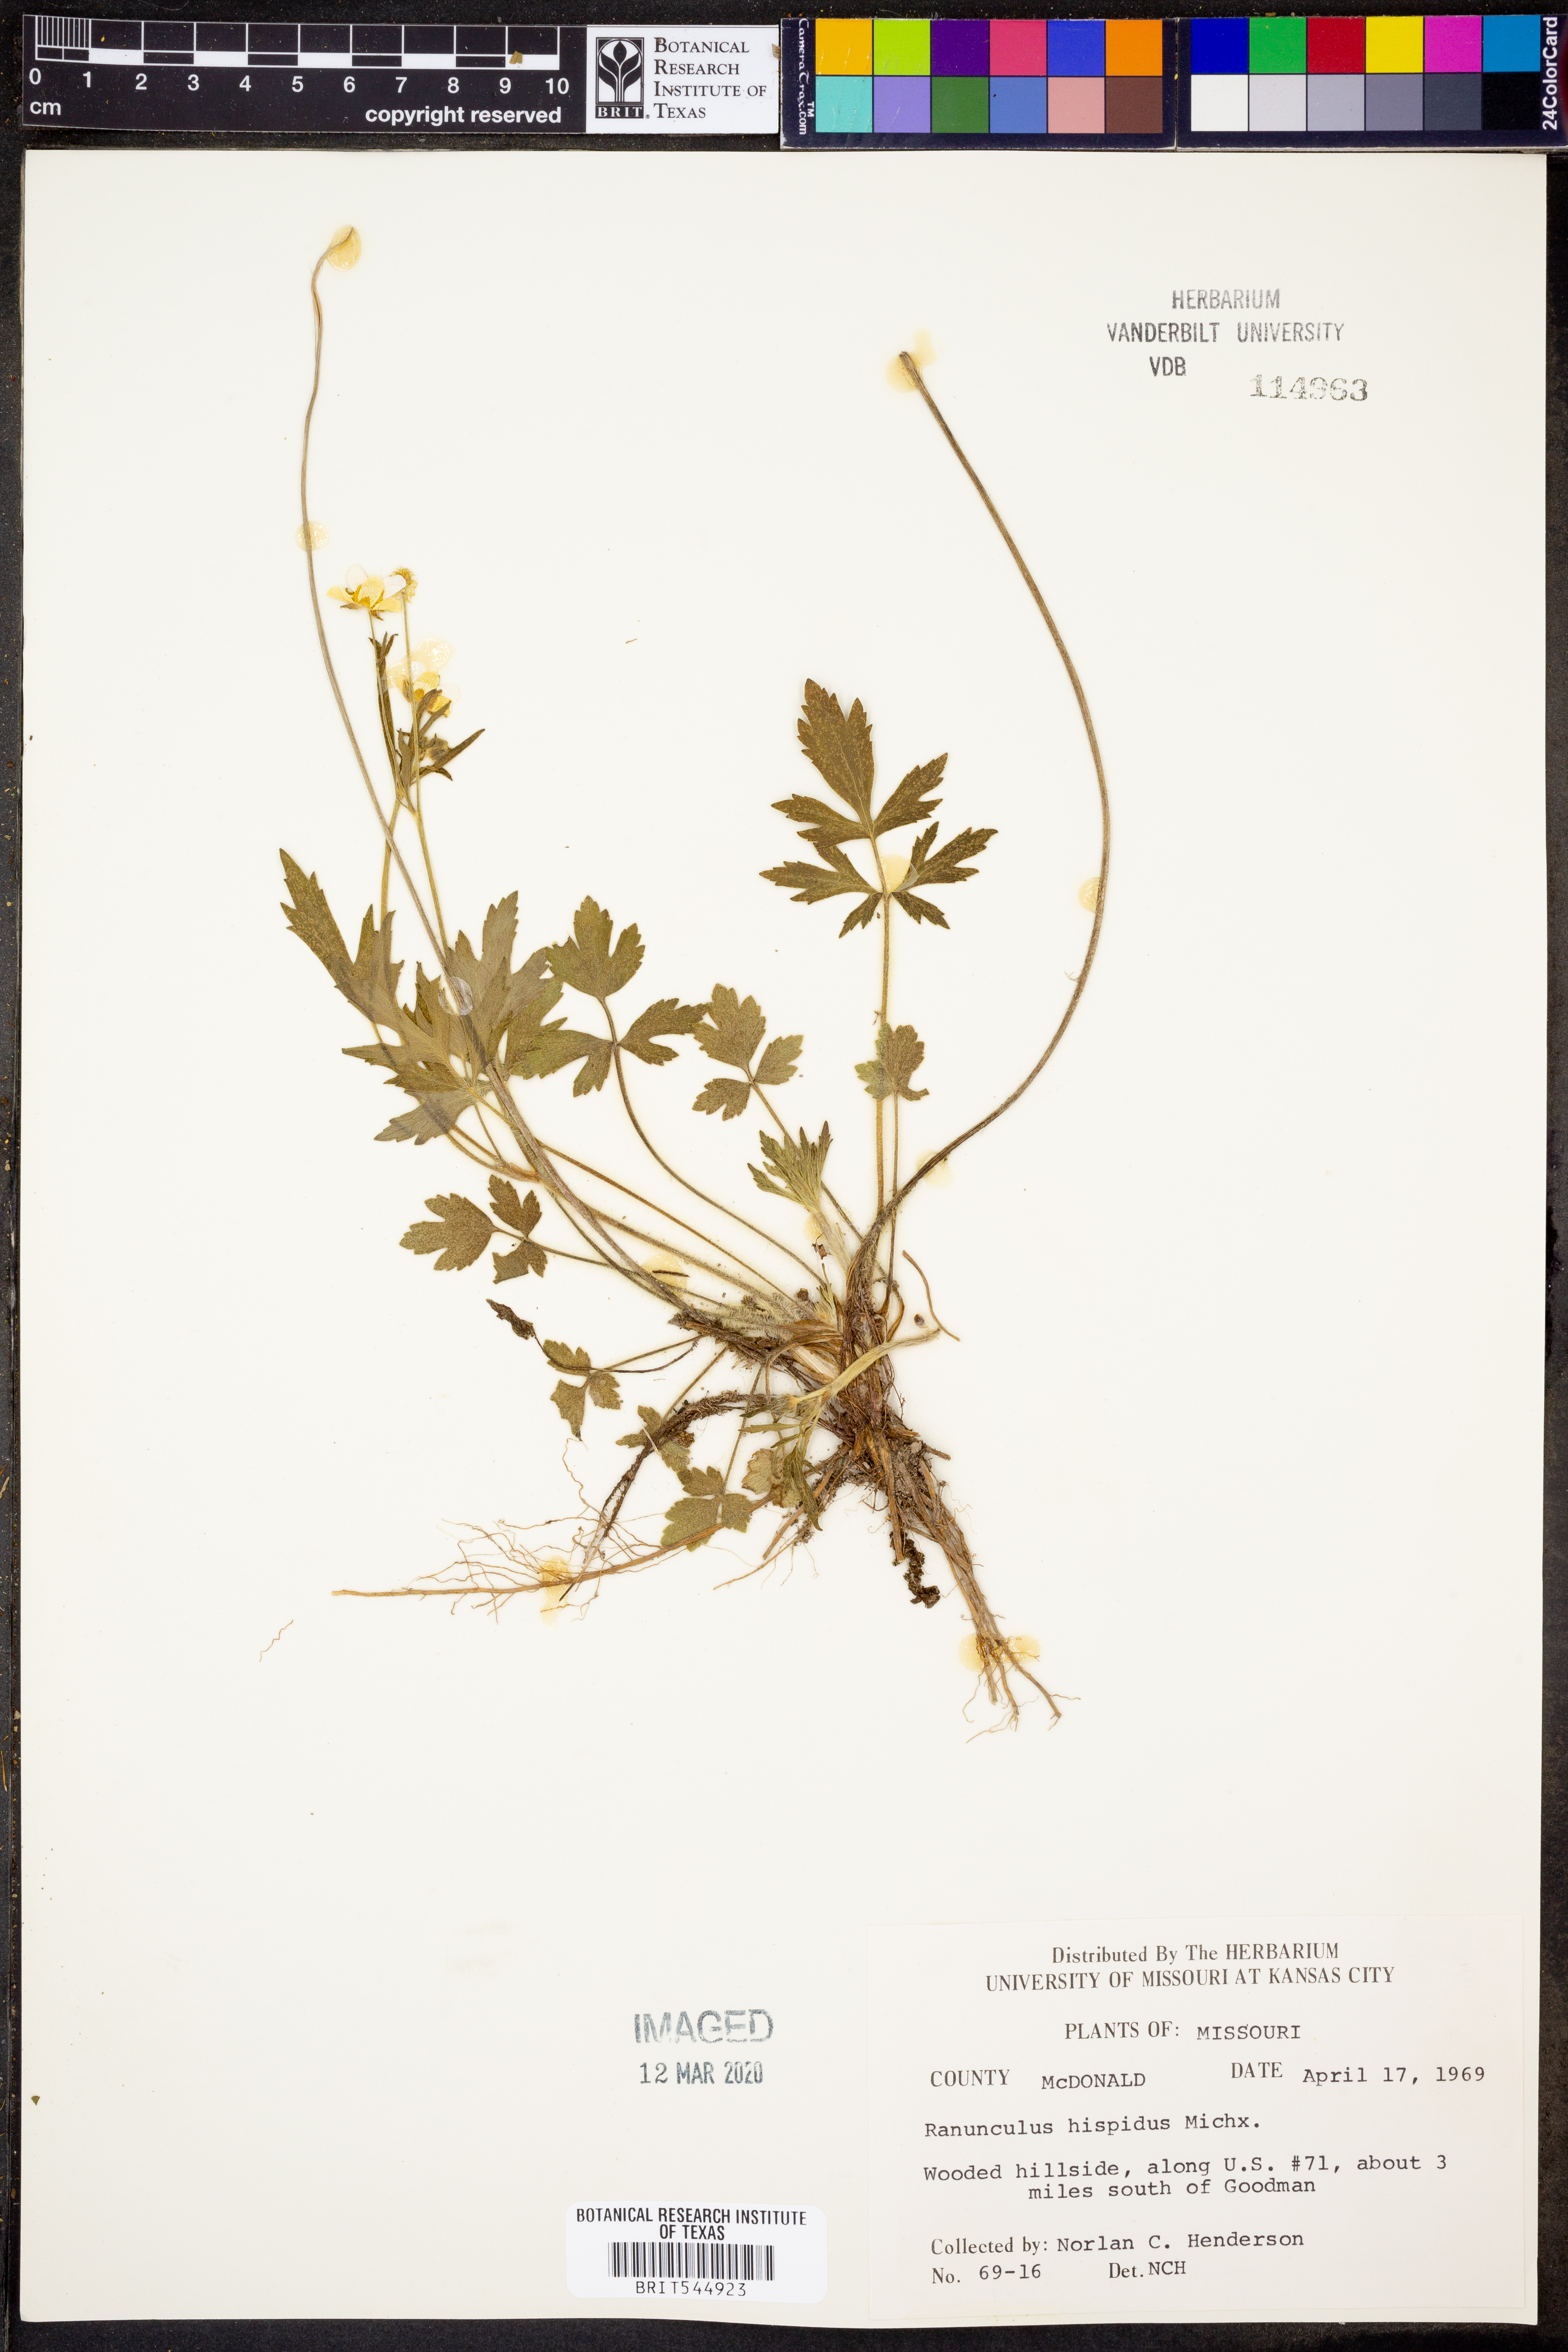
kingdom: Plantae
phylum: Tracheophyta
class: Magnoliopsida
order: Ranunculales
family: Ranunculaceae
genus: Ranunculus
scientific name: Ranunculus hispidus
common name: Bristly buttercup
